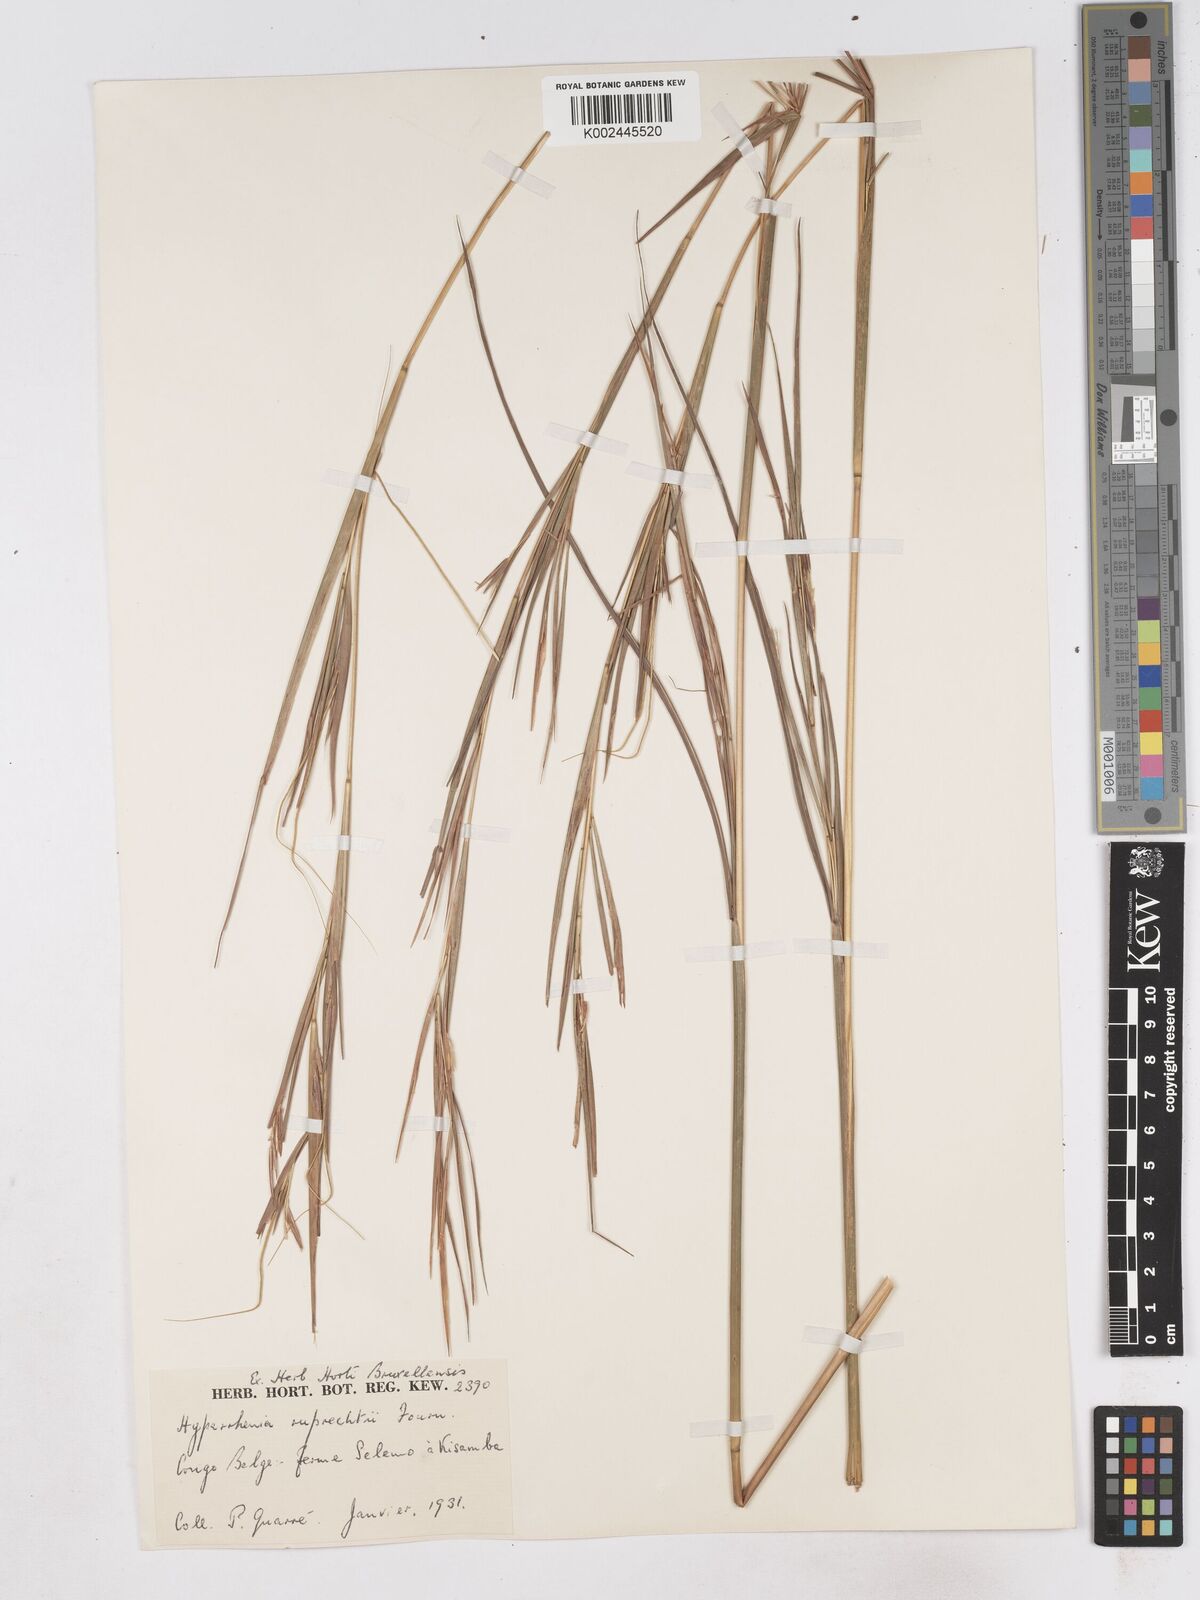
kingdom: Plantae
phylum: Tracheophyta
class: Liliopsida
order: Poales
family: Poaceae
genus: Hyperthelia
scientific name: Hyperthelia dissoluta
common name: Yellow thatching grass
